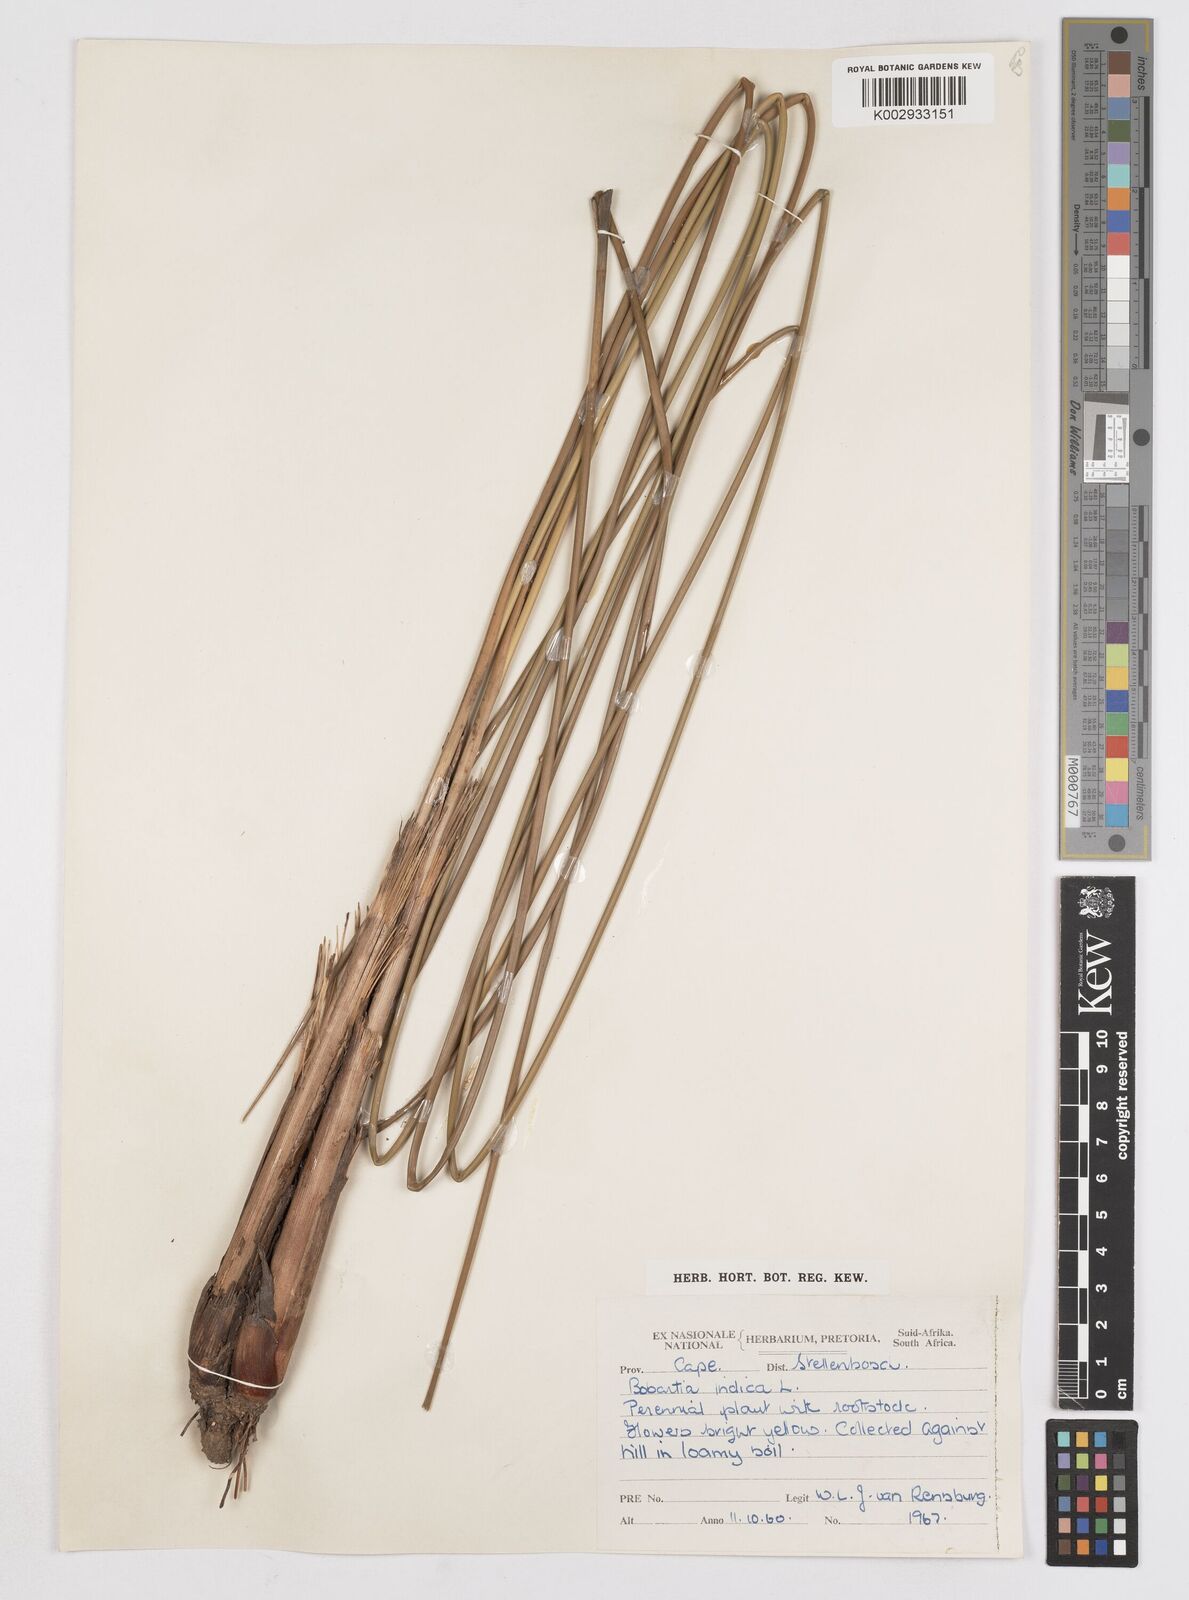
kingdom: Plantae
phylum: Tracheophyta
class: Liliopsida
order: Asparagales
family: Iridaceae
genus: Bobartia
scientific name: Bobartia indica
